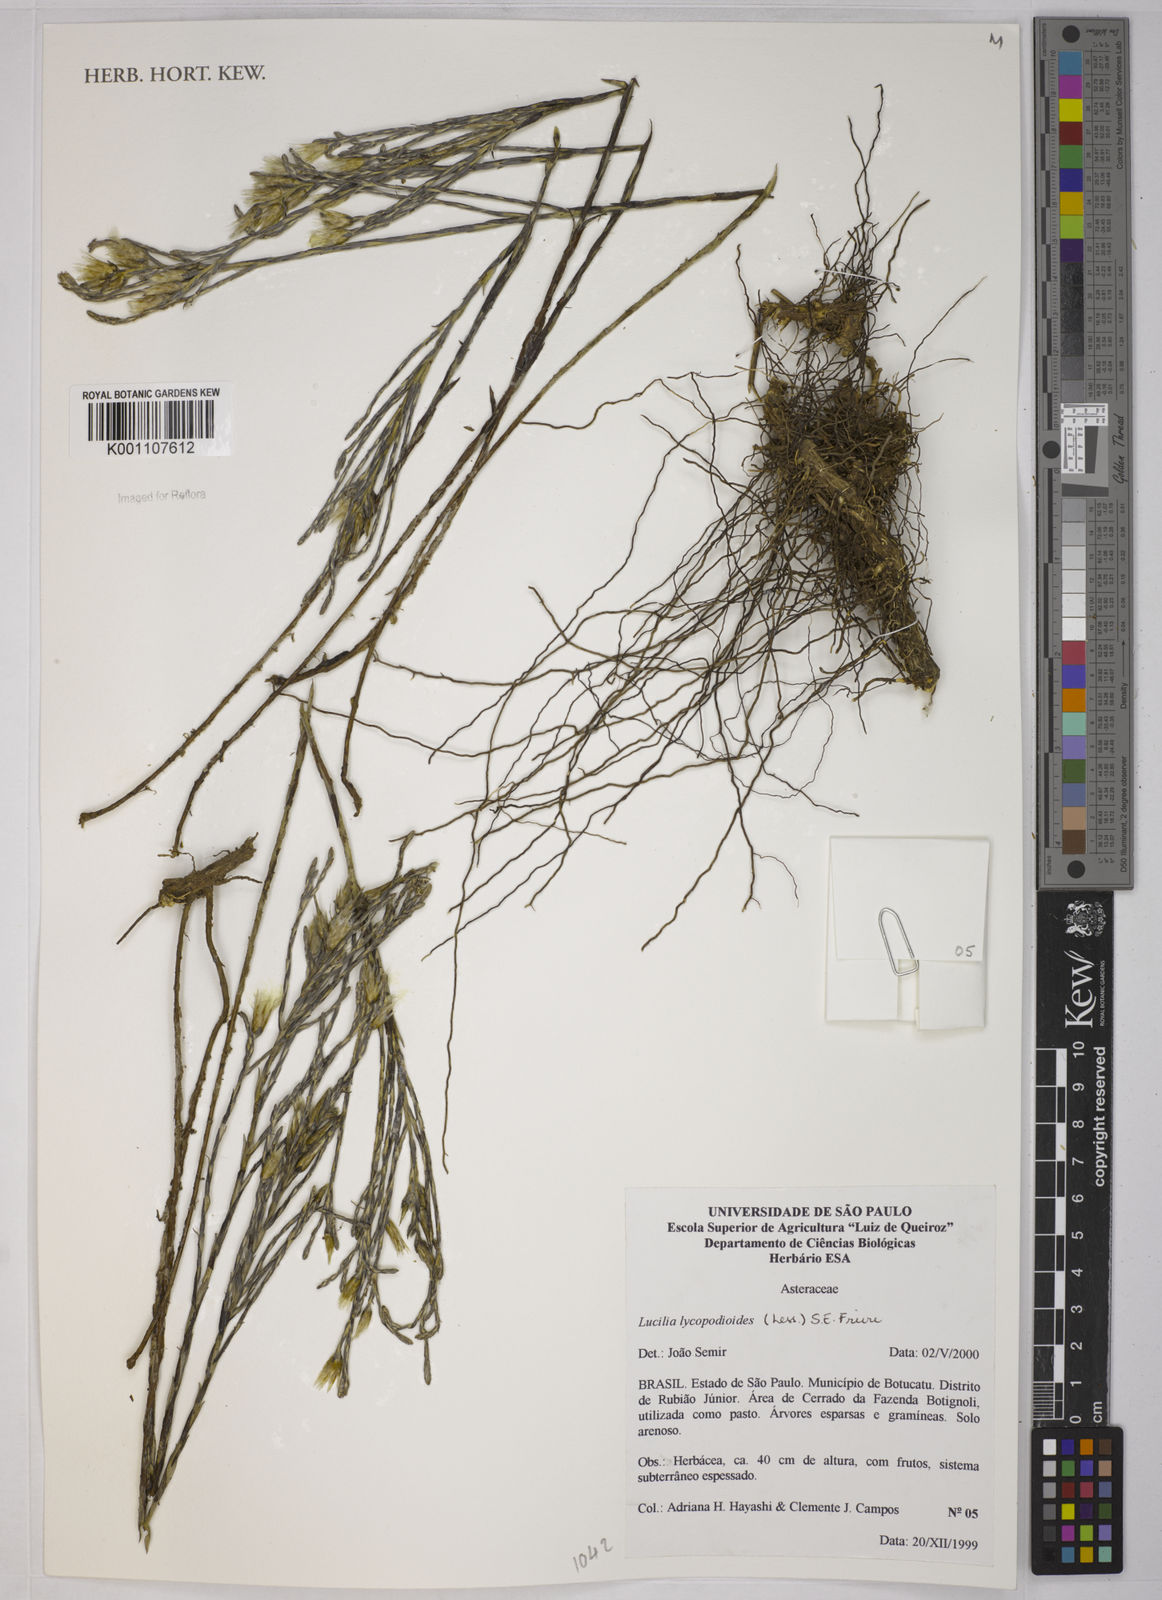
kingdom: Plantae
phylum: Tracheophyta
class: Magnoliopsida
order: Asterales
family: Asteraceae
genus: Lucilia
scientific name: Lucilia lycopodioides
